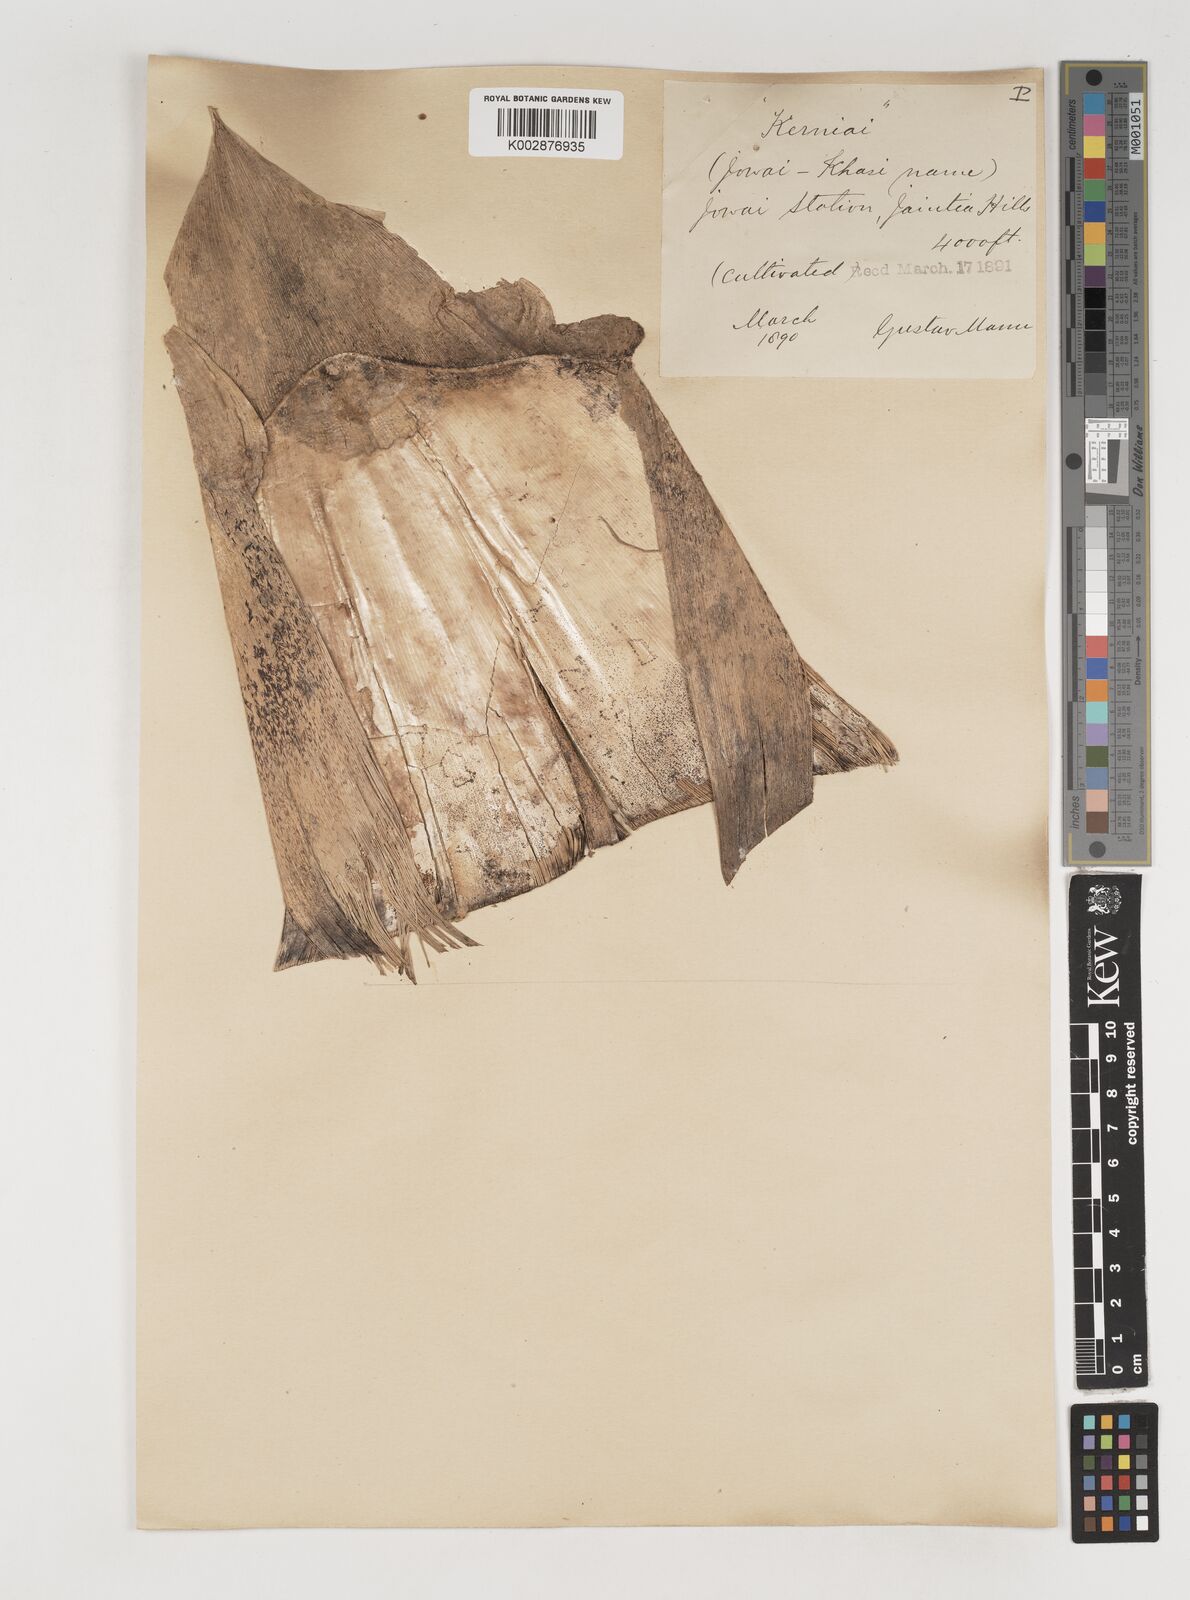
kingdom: Plantae
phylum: Tracheophyta
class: Liliopsida
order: Poales
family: Poaceae
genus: Bambusa
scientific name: Bambusa tulda
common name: Bengal bamboo
